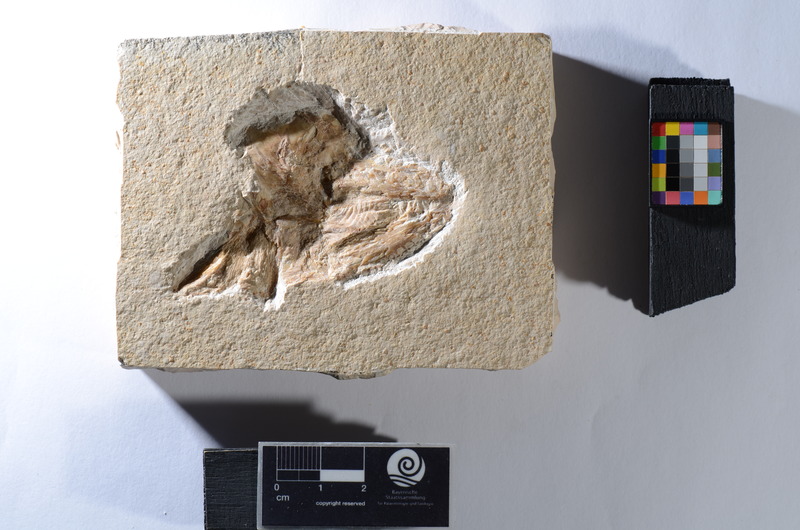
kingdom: Animalia
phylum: Chordata
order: Amiiformes
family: Caturidae
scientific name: Caturidae
